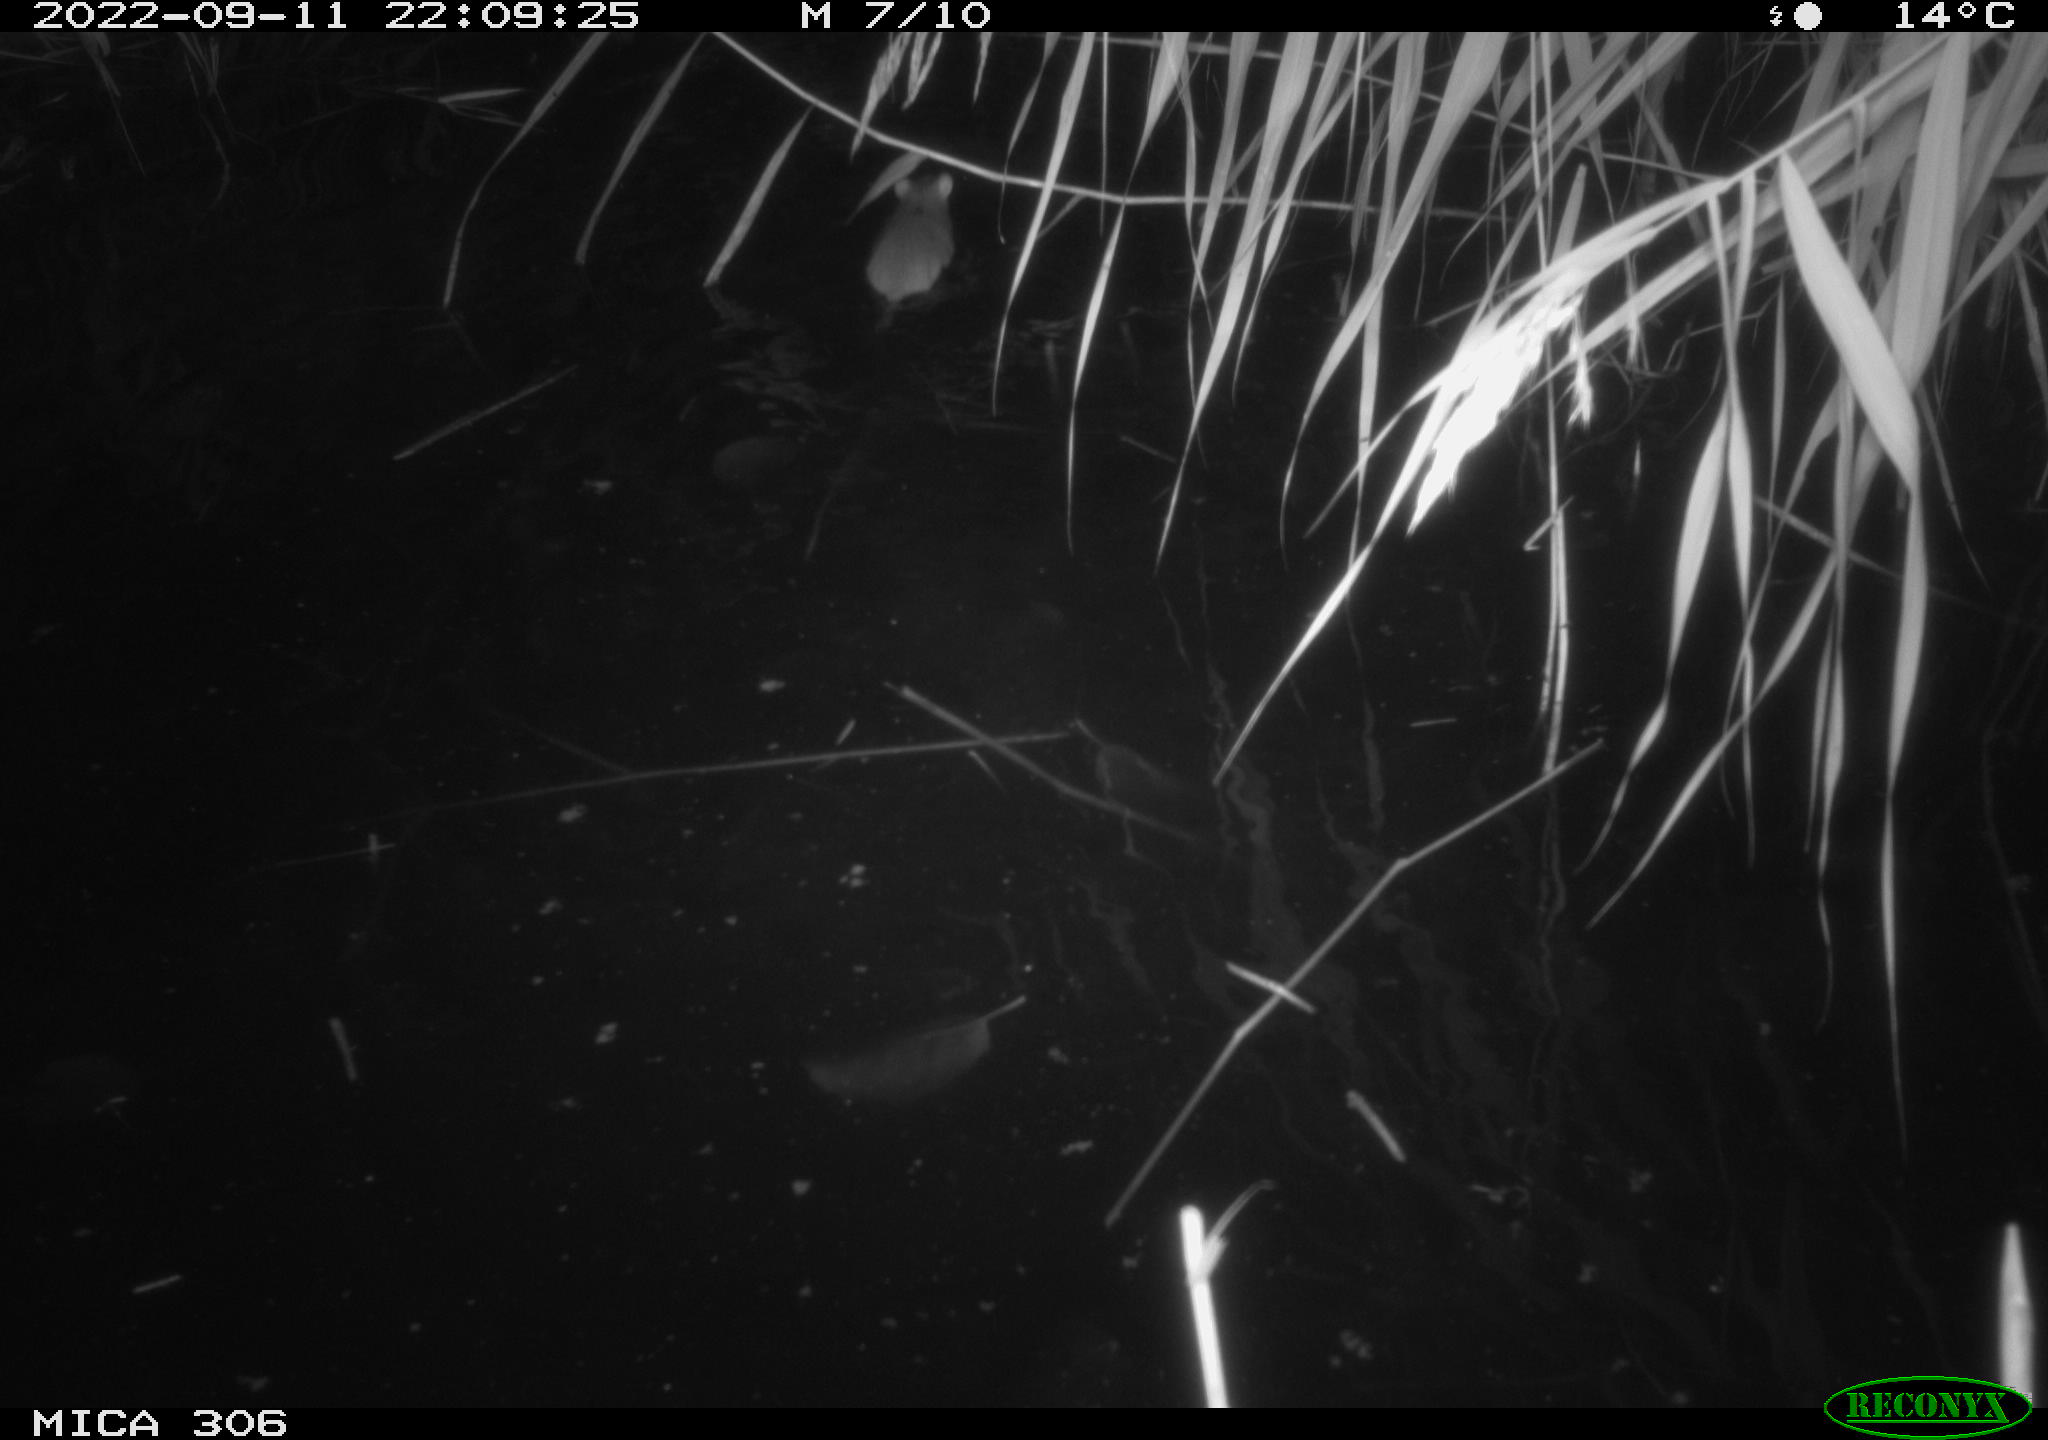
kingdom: Animalia
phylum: Chordata
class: Mammalia
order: Rodentia
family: Muridae
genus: Rattus
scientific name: Rattus norvegicus
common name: Brown rat
